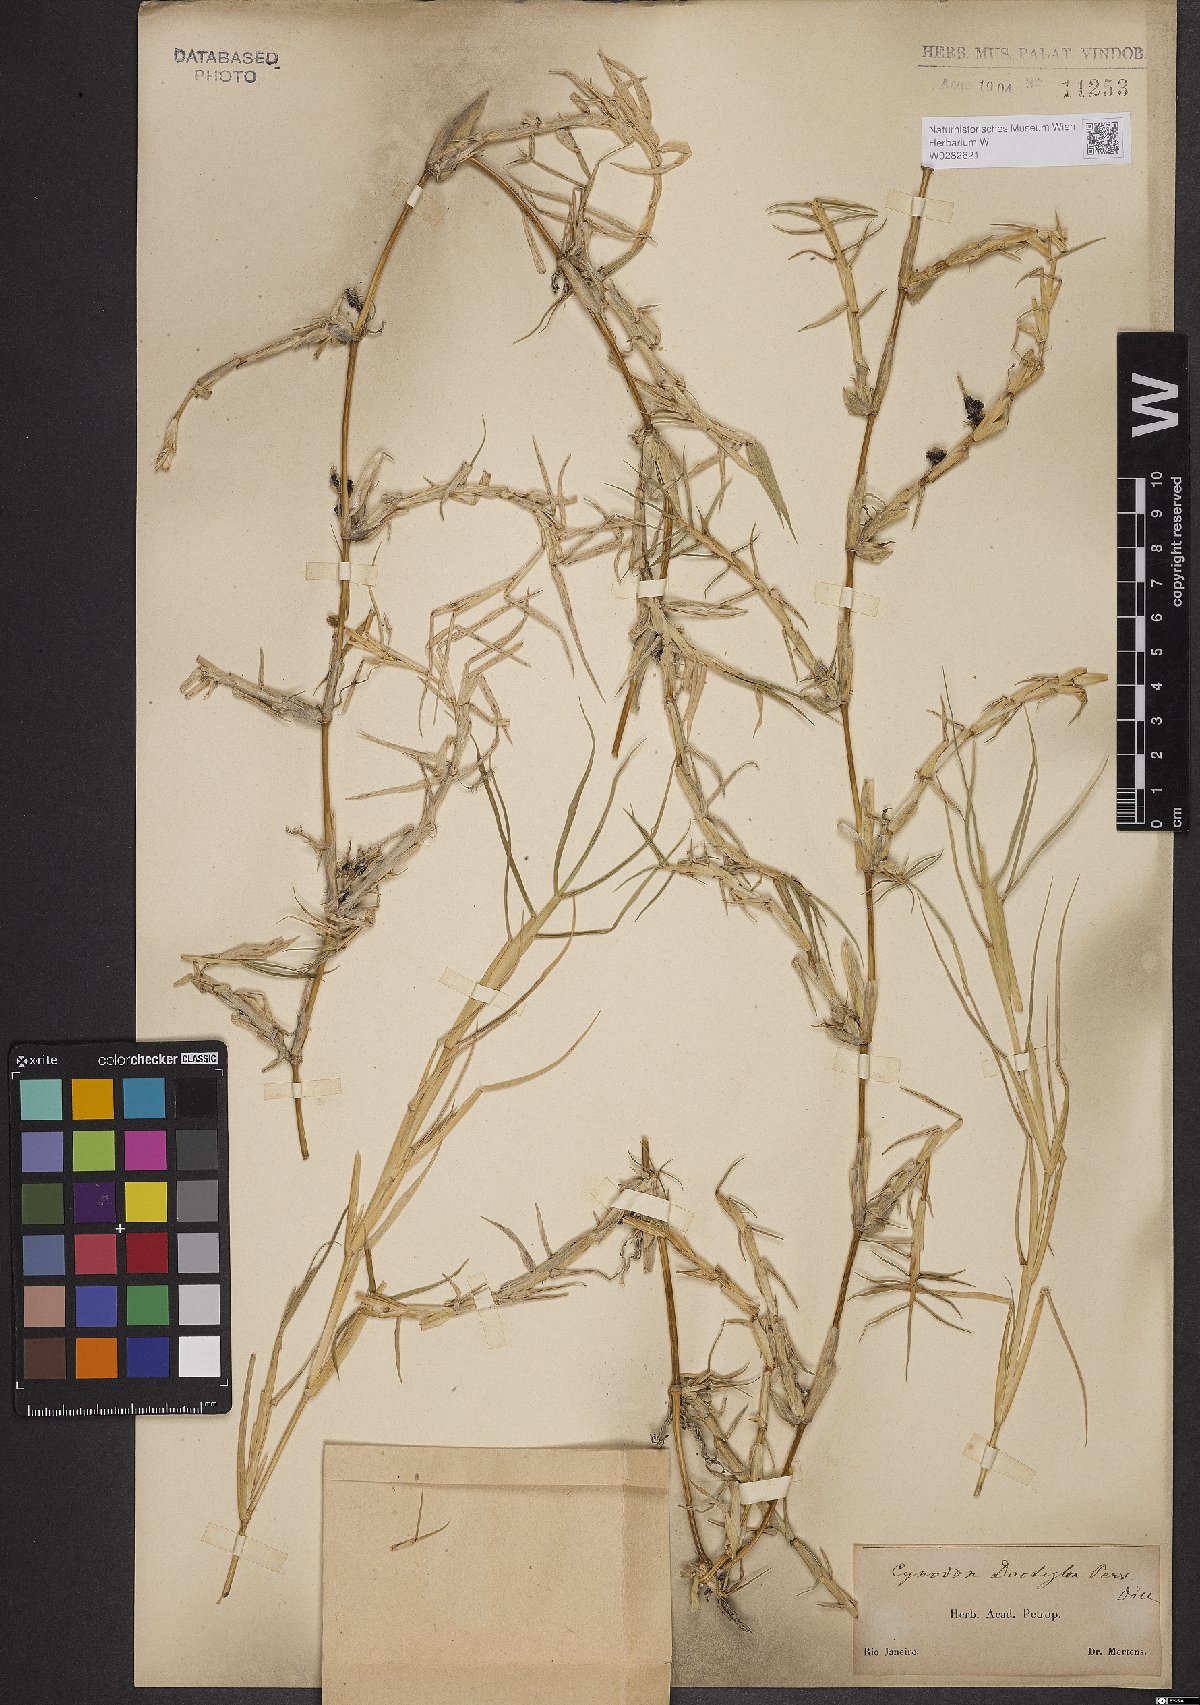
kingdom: Plantae
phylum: Tracheophyta
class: Liliopsida
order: Poales
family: Poaceae
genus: Cynodon
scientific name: Cynodon dactylon
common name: Bermuda grass
